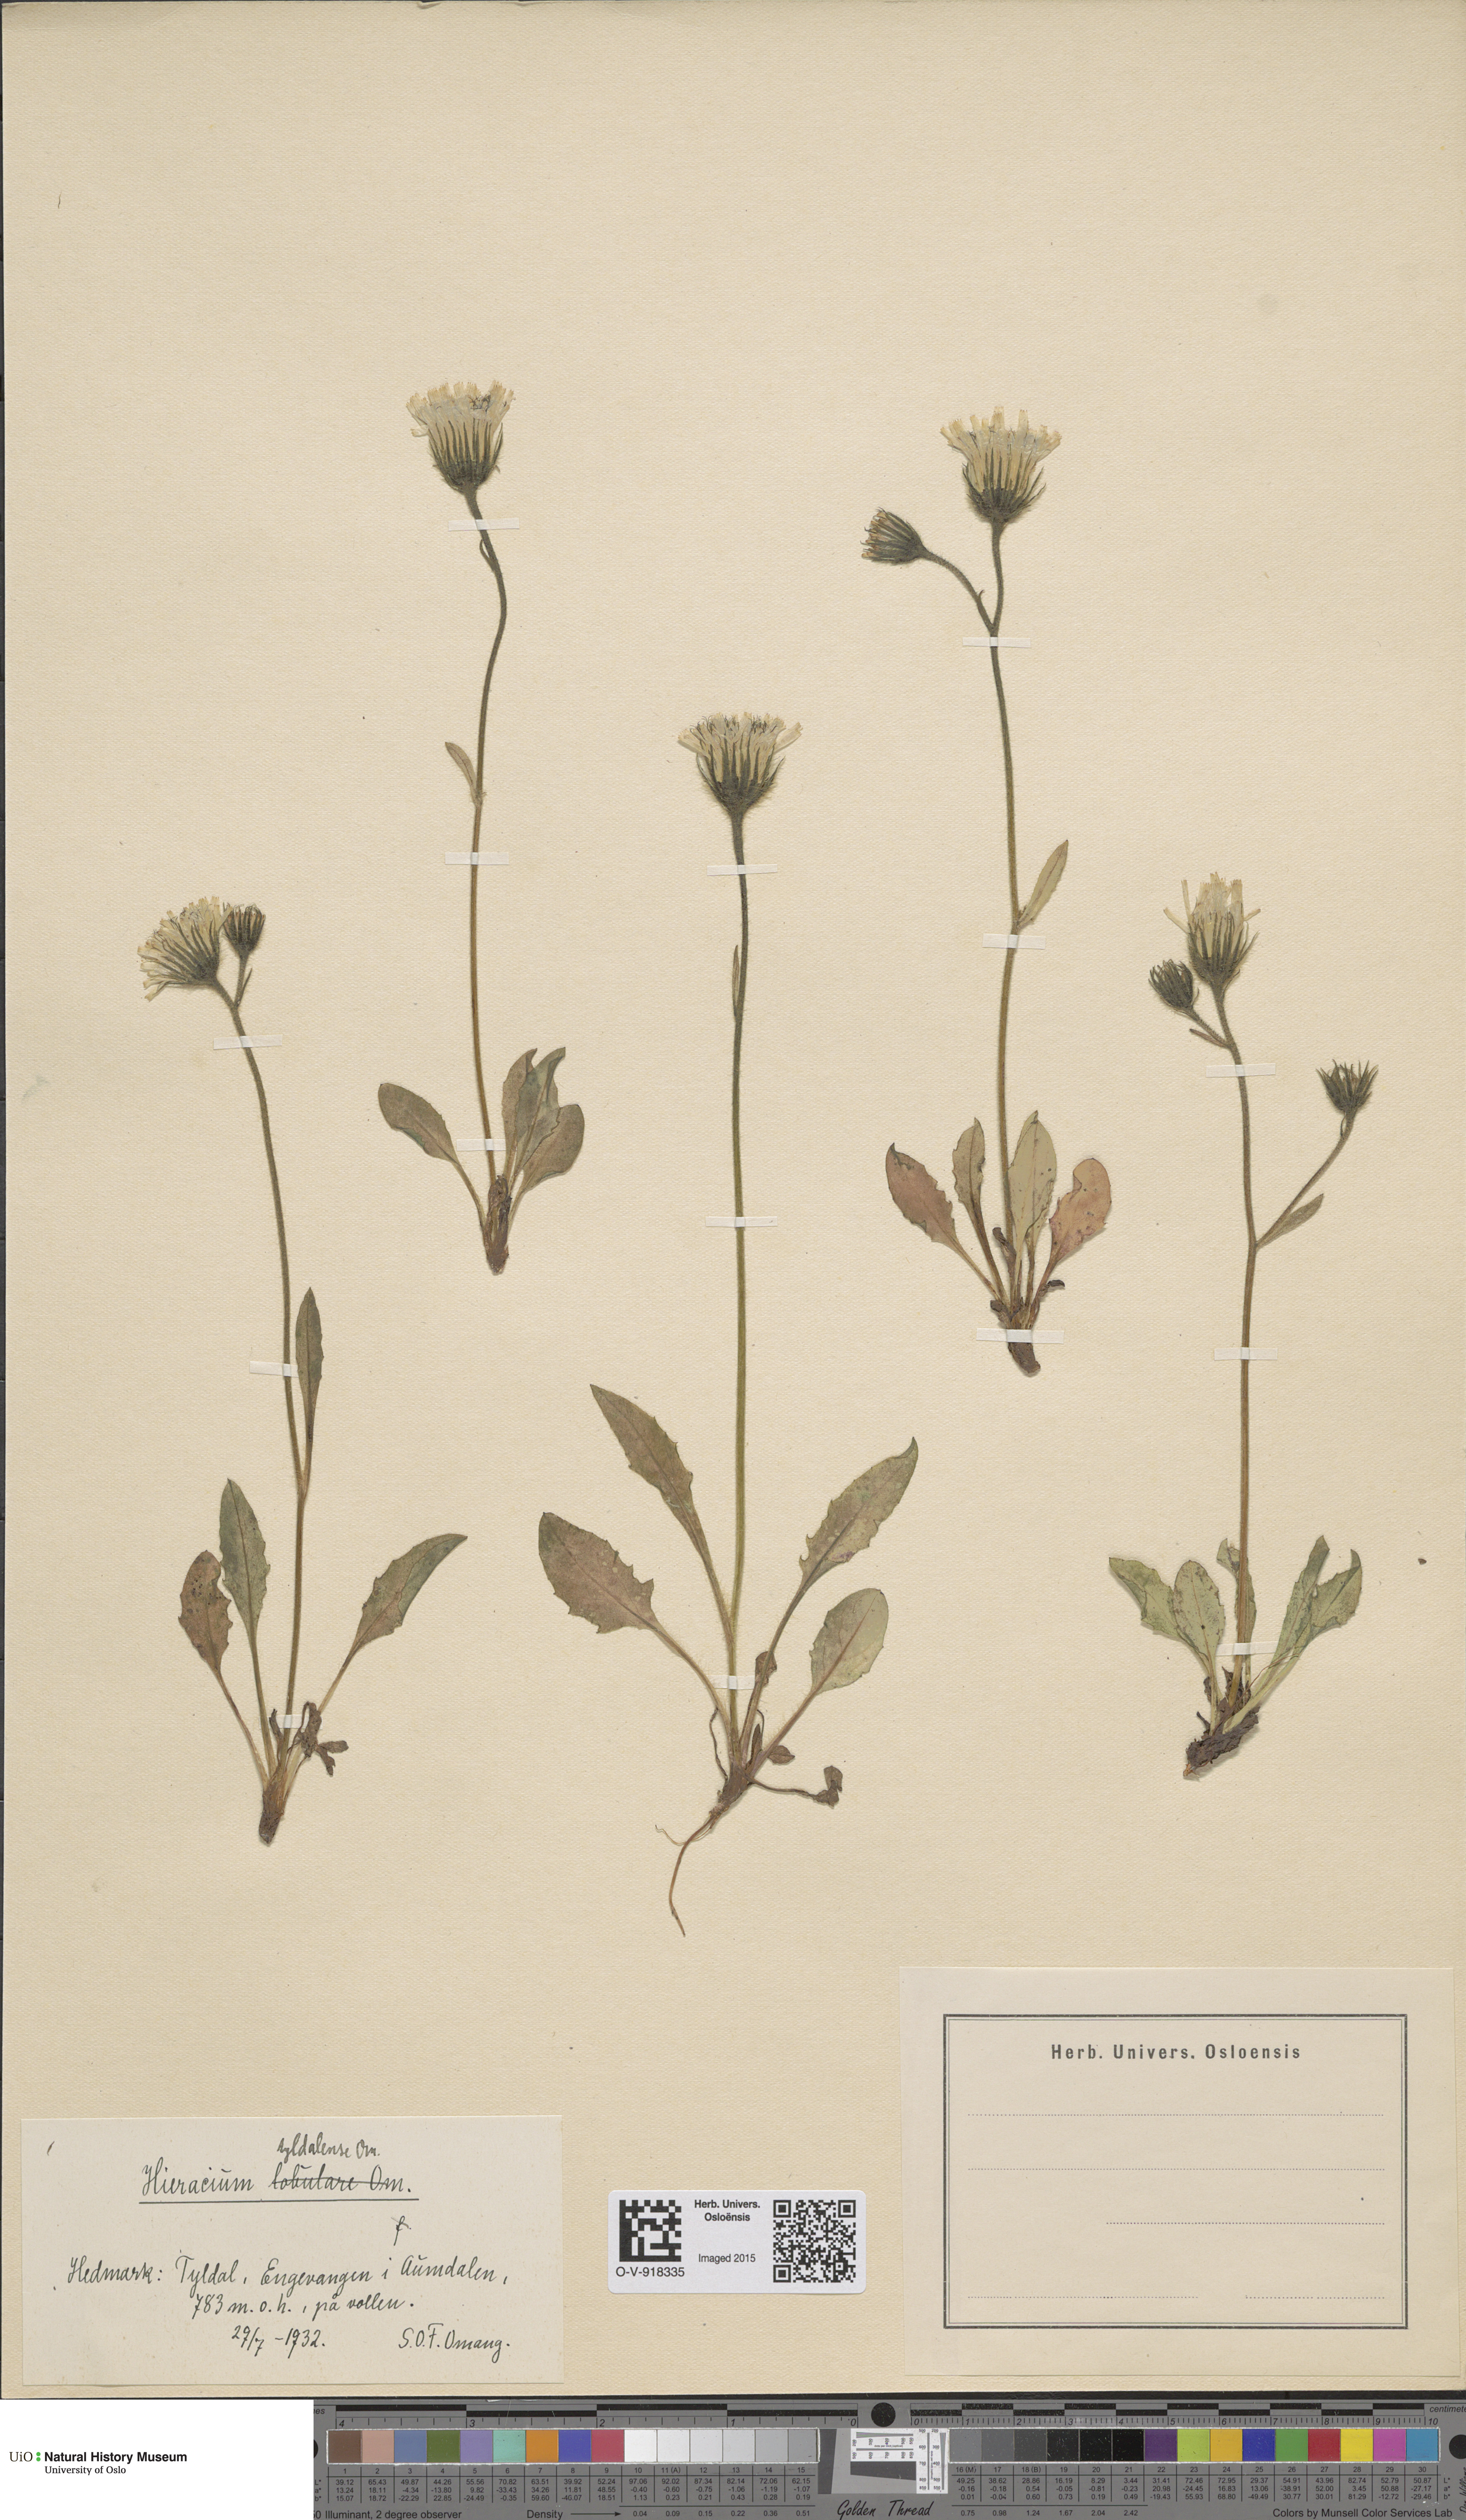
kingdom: Plantae
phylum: Tracheophyta
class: Magnoliopsida
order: Asterales
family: Asteraceae
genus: Hieracium
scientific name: Hieracium
